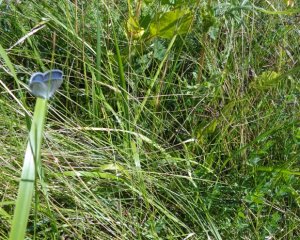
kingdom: Animalia
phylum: Arthropoda
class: Insecta
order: Lepidoptera
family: Lycaenidae
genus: Elkalyce
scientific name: Elkalyce comyntas
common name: Eastern Tailed-Blue
